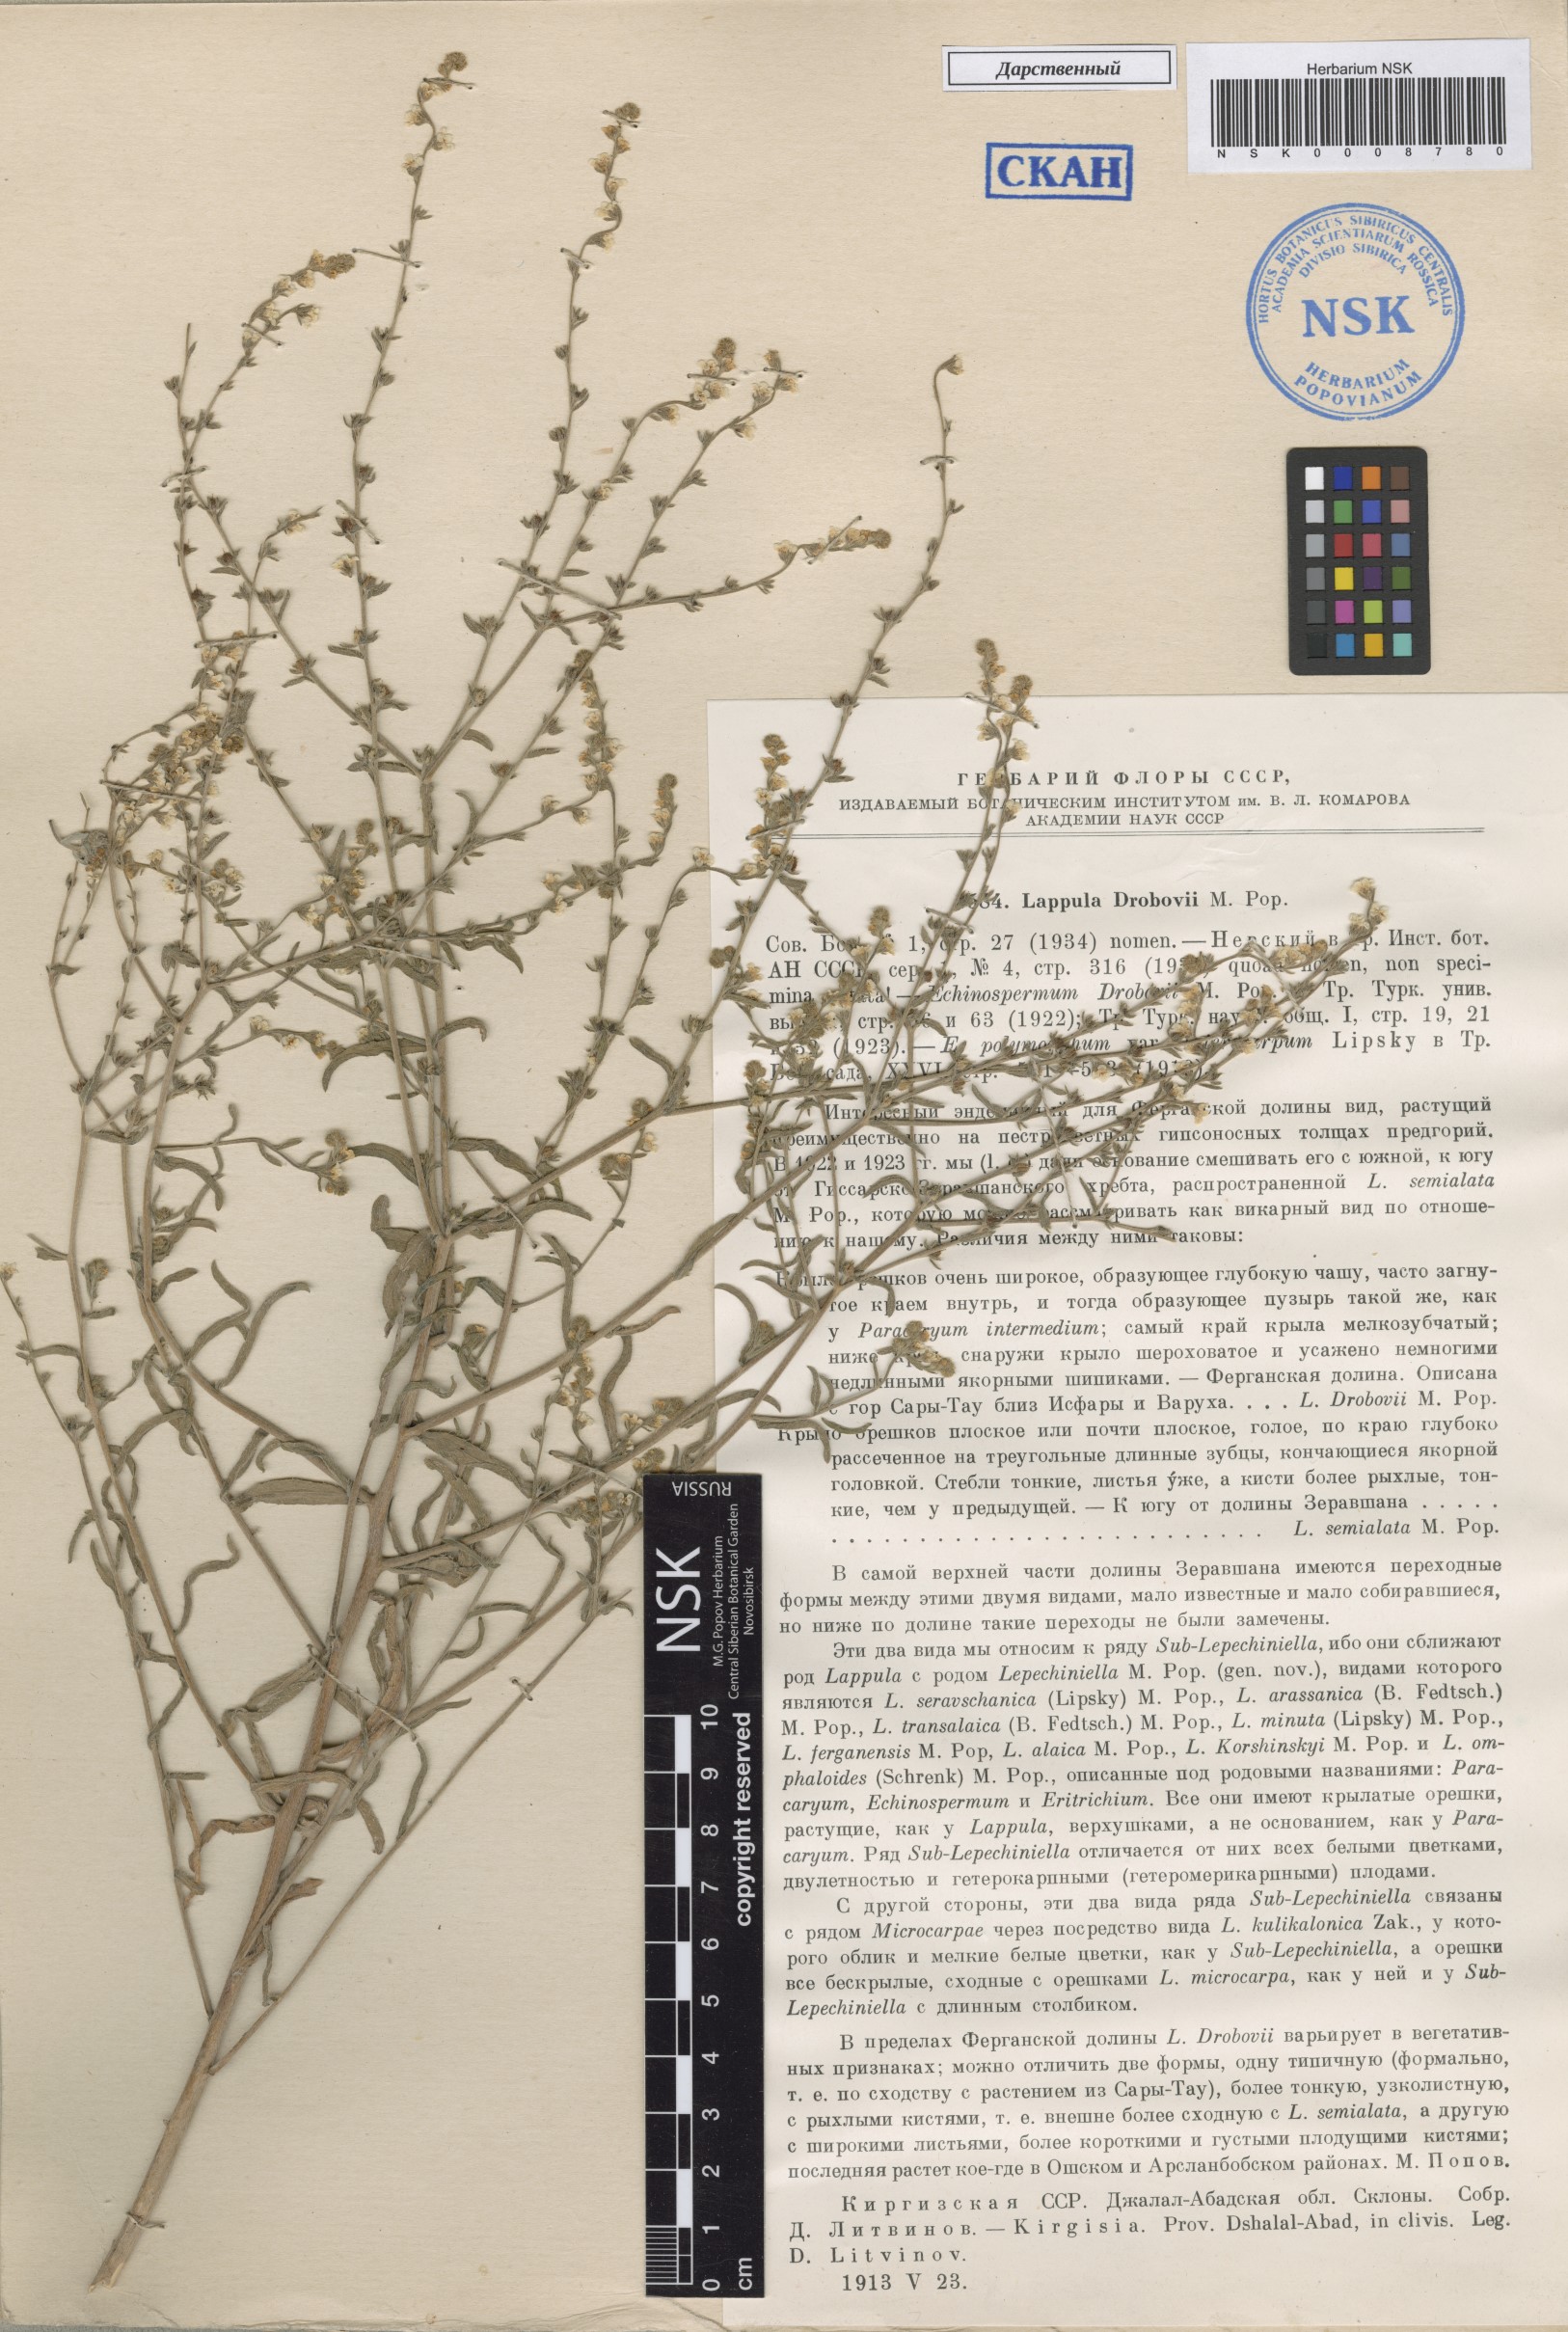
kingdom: Plantae
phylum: Tracheophyta
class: Magnoliopsida
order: Boraginales
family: Boraginaceae
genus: Rochelia
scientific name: Rochelia drobovii
